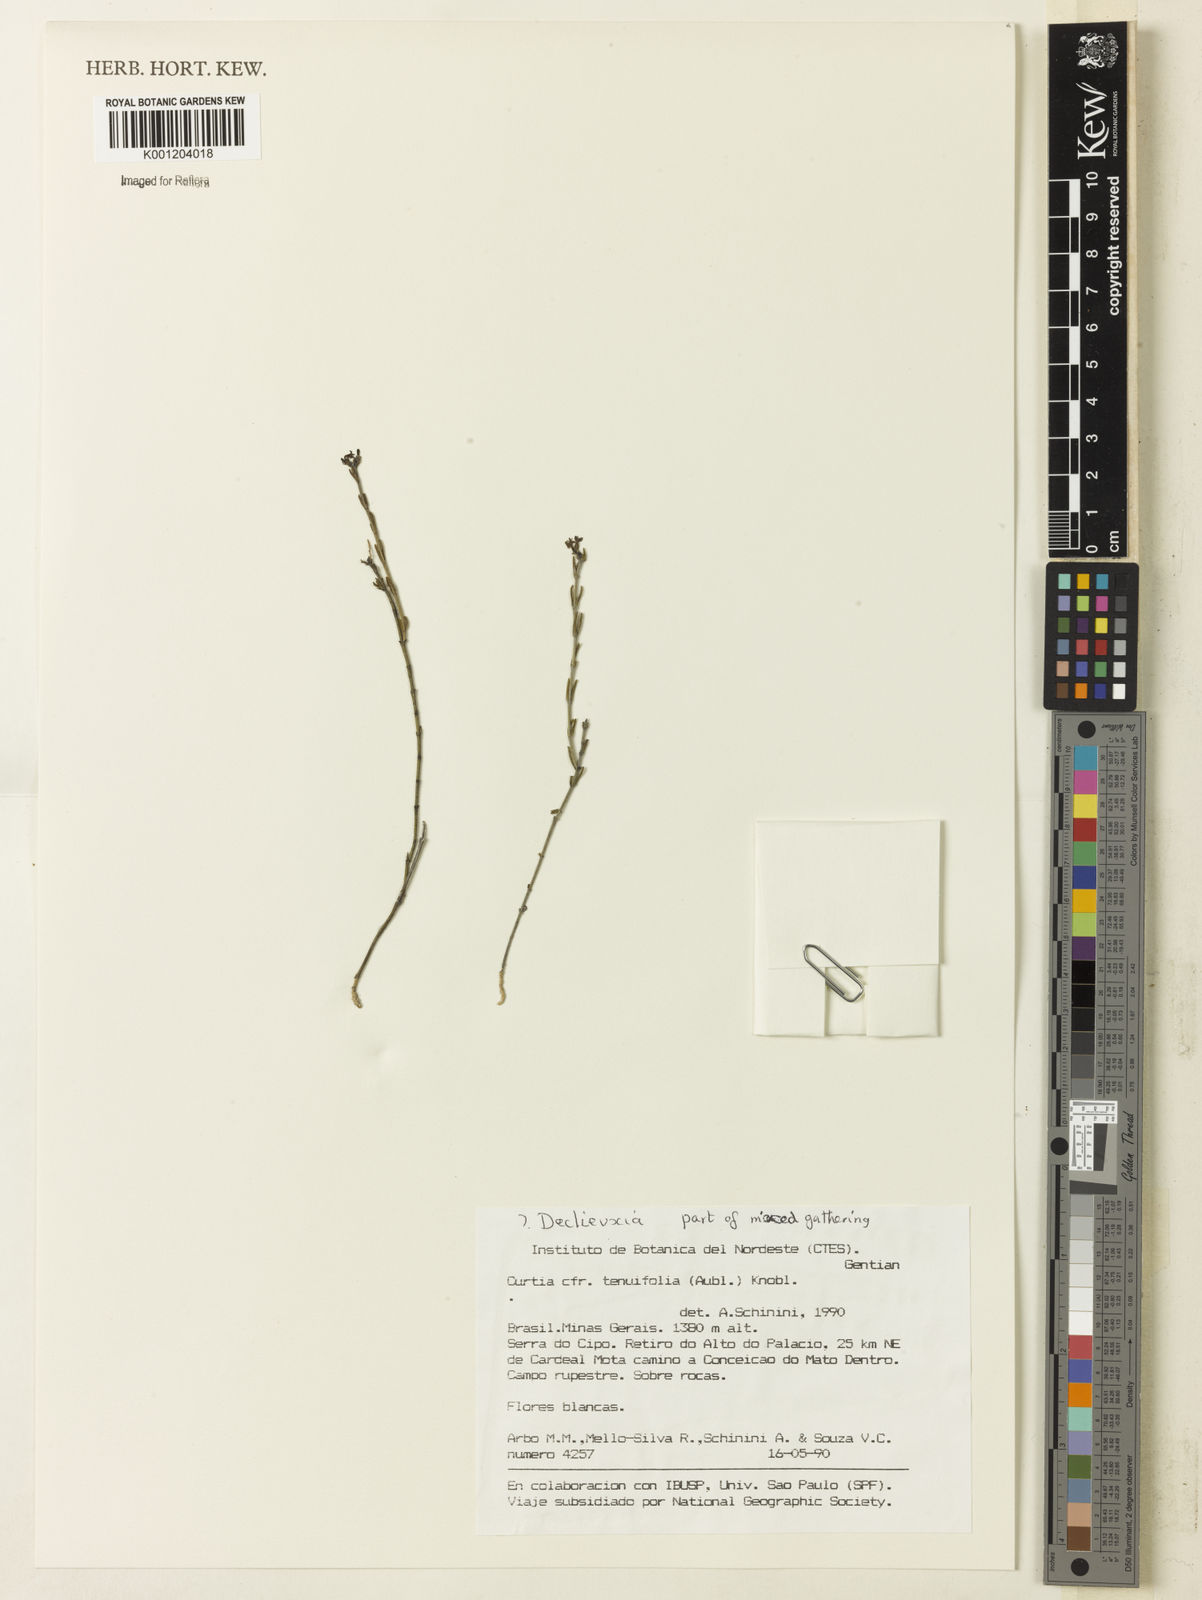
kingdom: Plantae
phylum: Tracheophyta
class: Magnoliopsida
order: Gentianales
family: Rubiaceae
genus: Declieuxia
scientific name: Declieuxia
